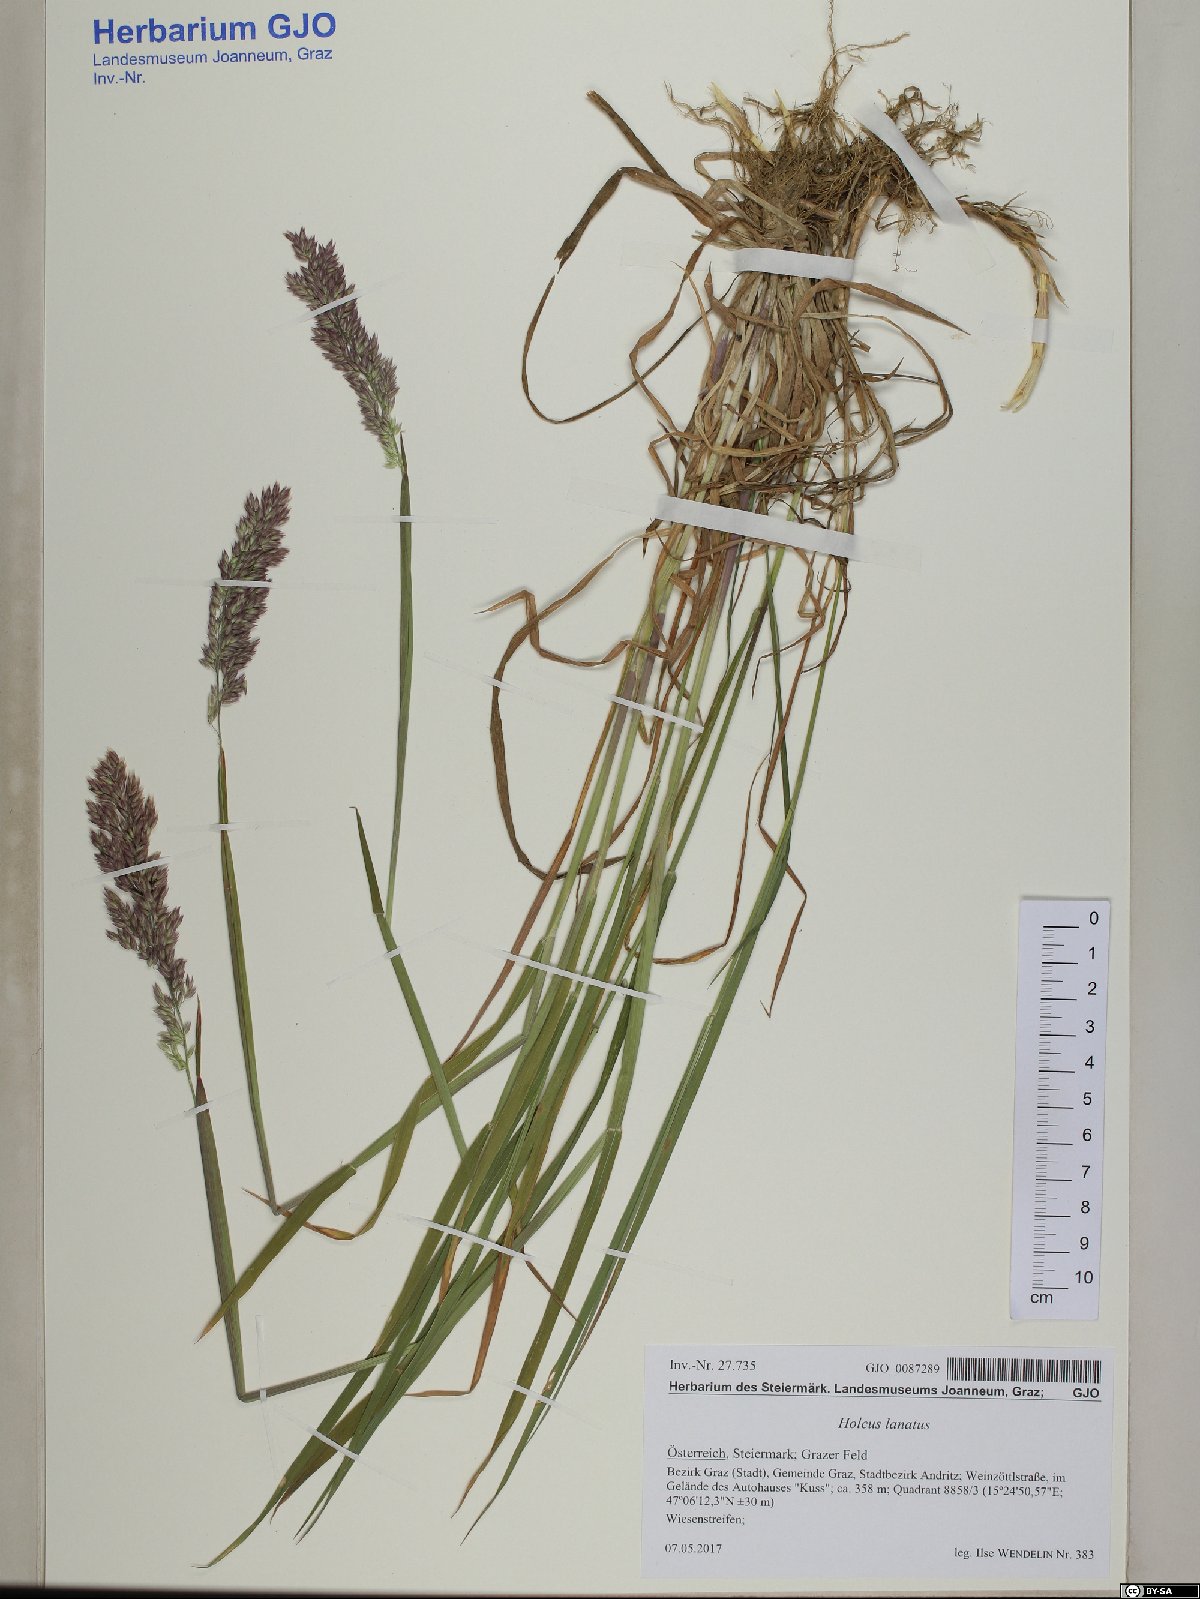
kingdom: Plantae
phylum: Tracheophyta
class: Liliopsida
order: Poales
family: Poaceae
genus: Holcus
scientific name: Holcus lanatus
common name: Yorkshire-fog
